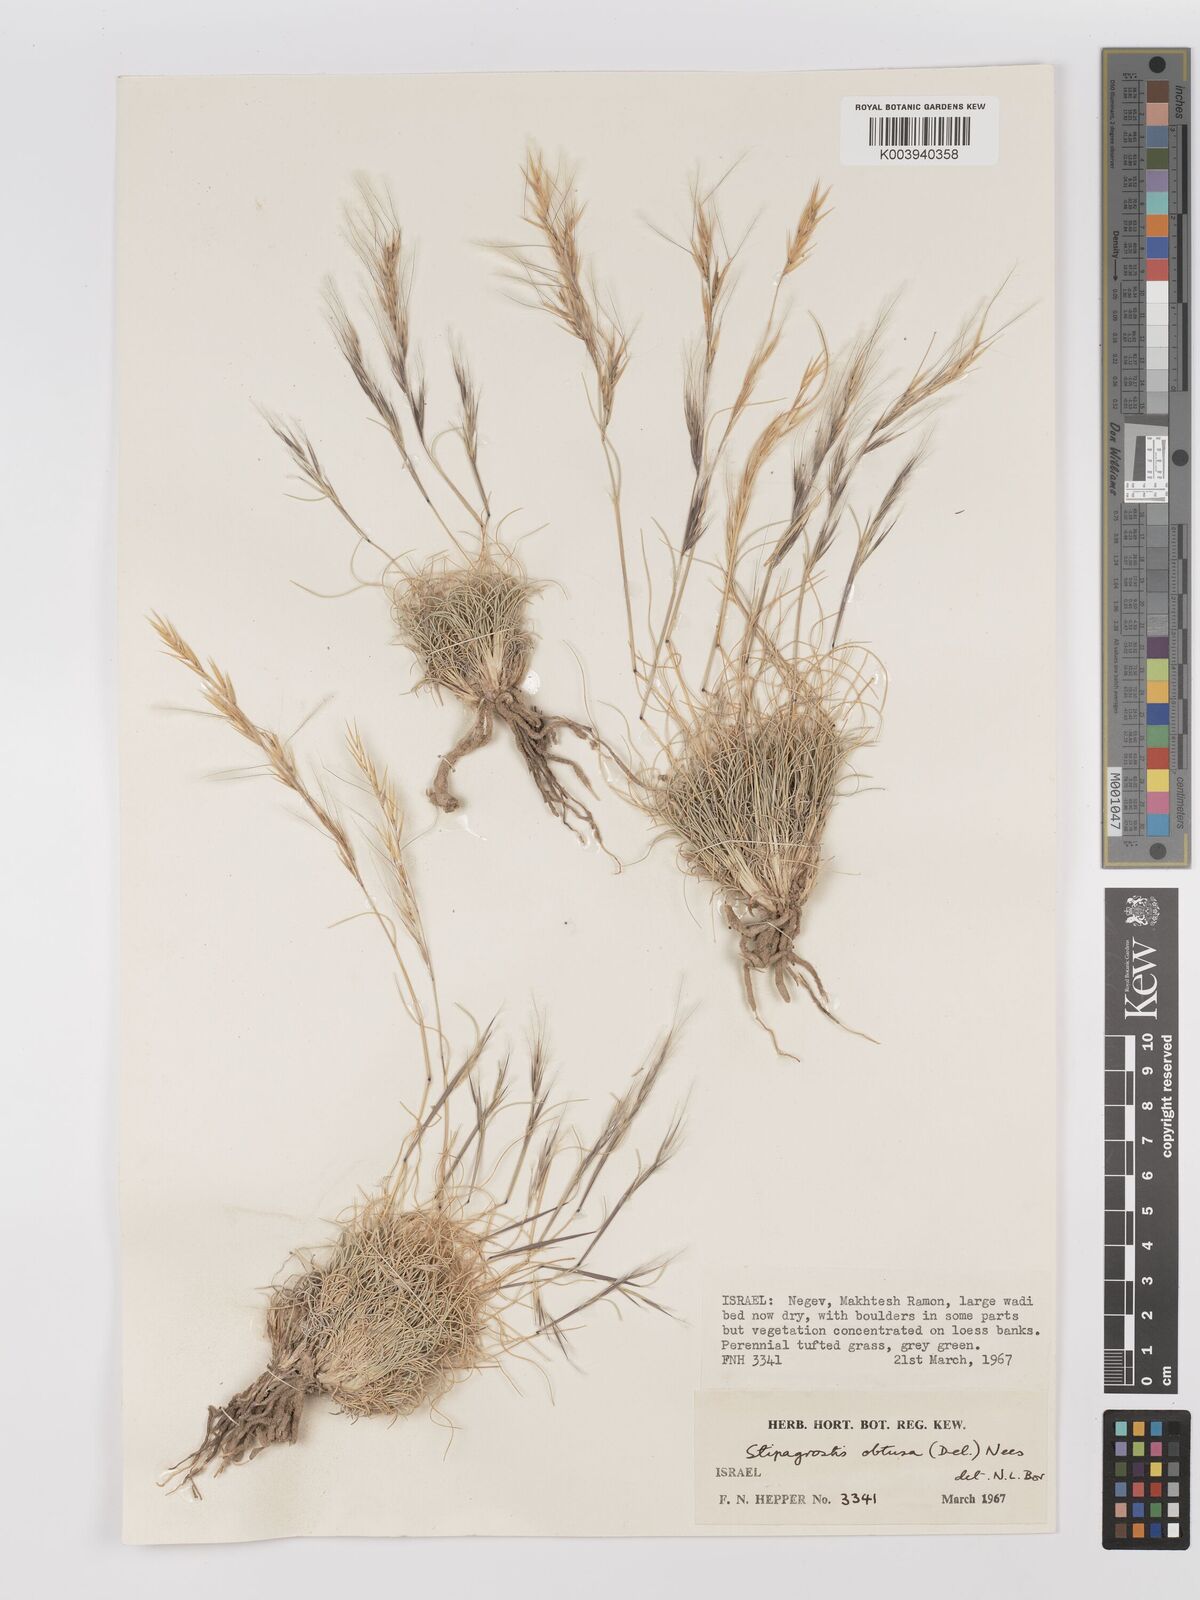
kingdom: Plantae
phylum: Tracheophyta
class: Liliopsida
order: Poales
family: Poaceae
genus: Stipagrostis
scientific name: Stipagrostis obtusa
